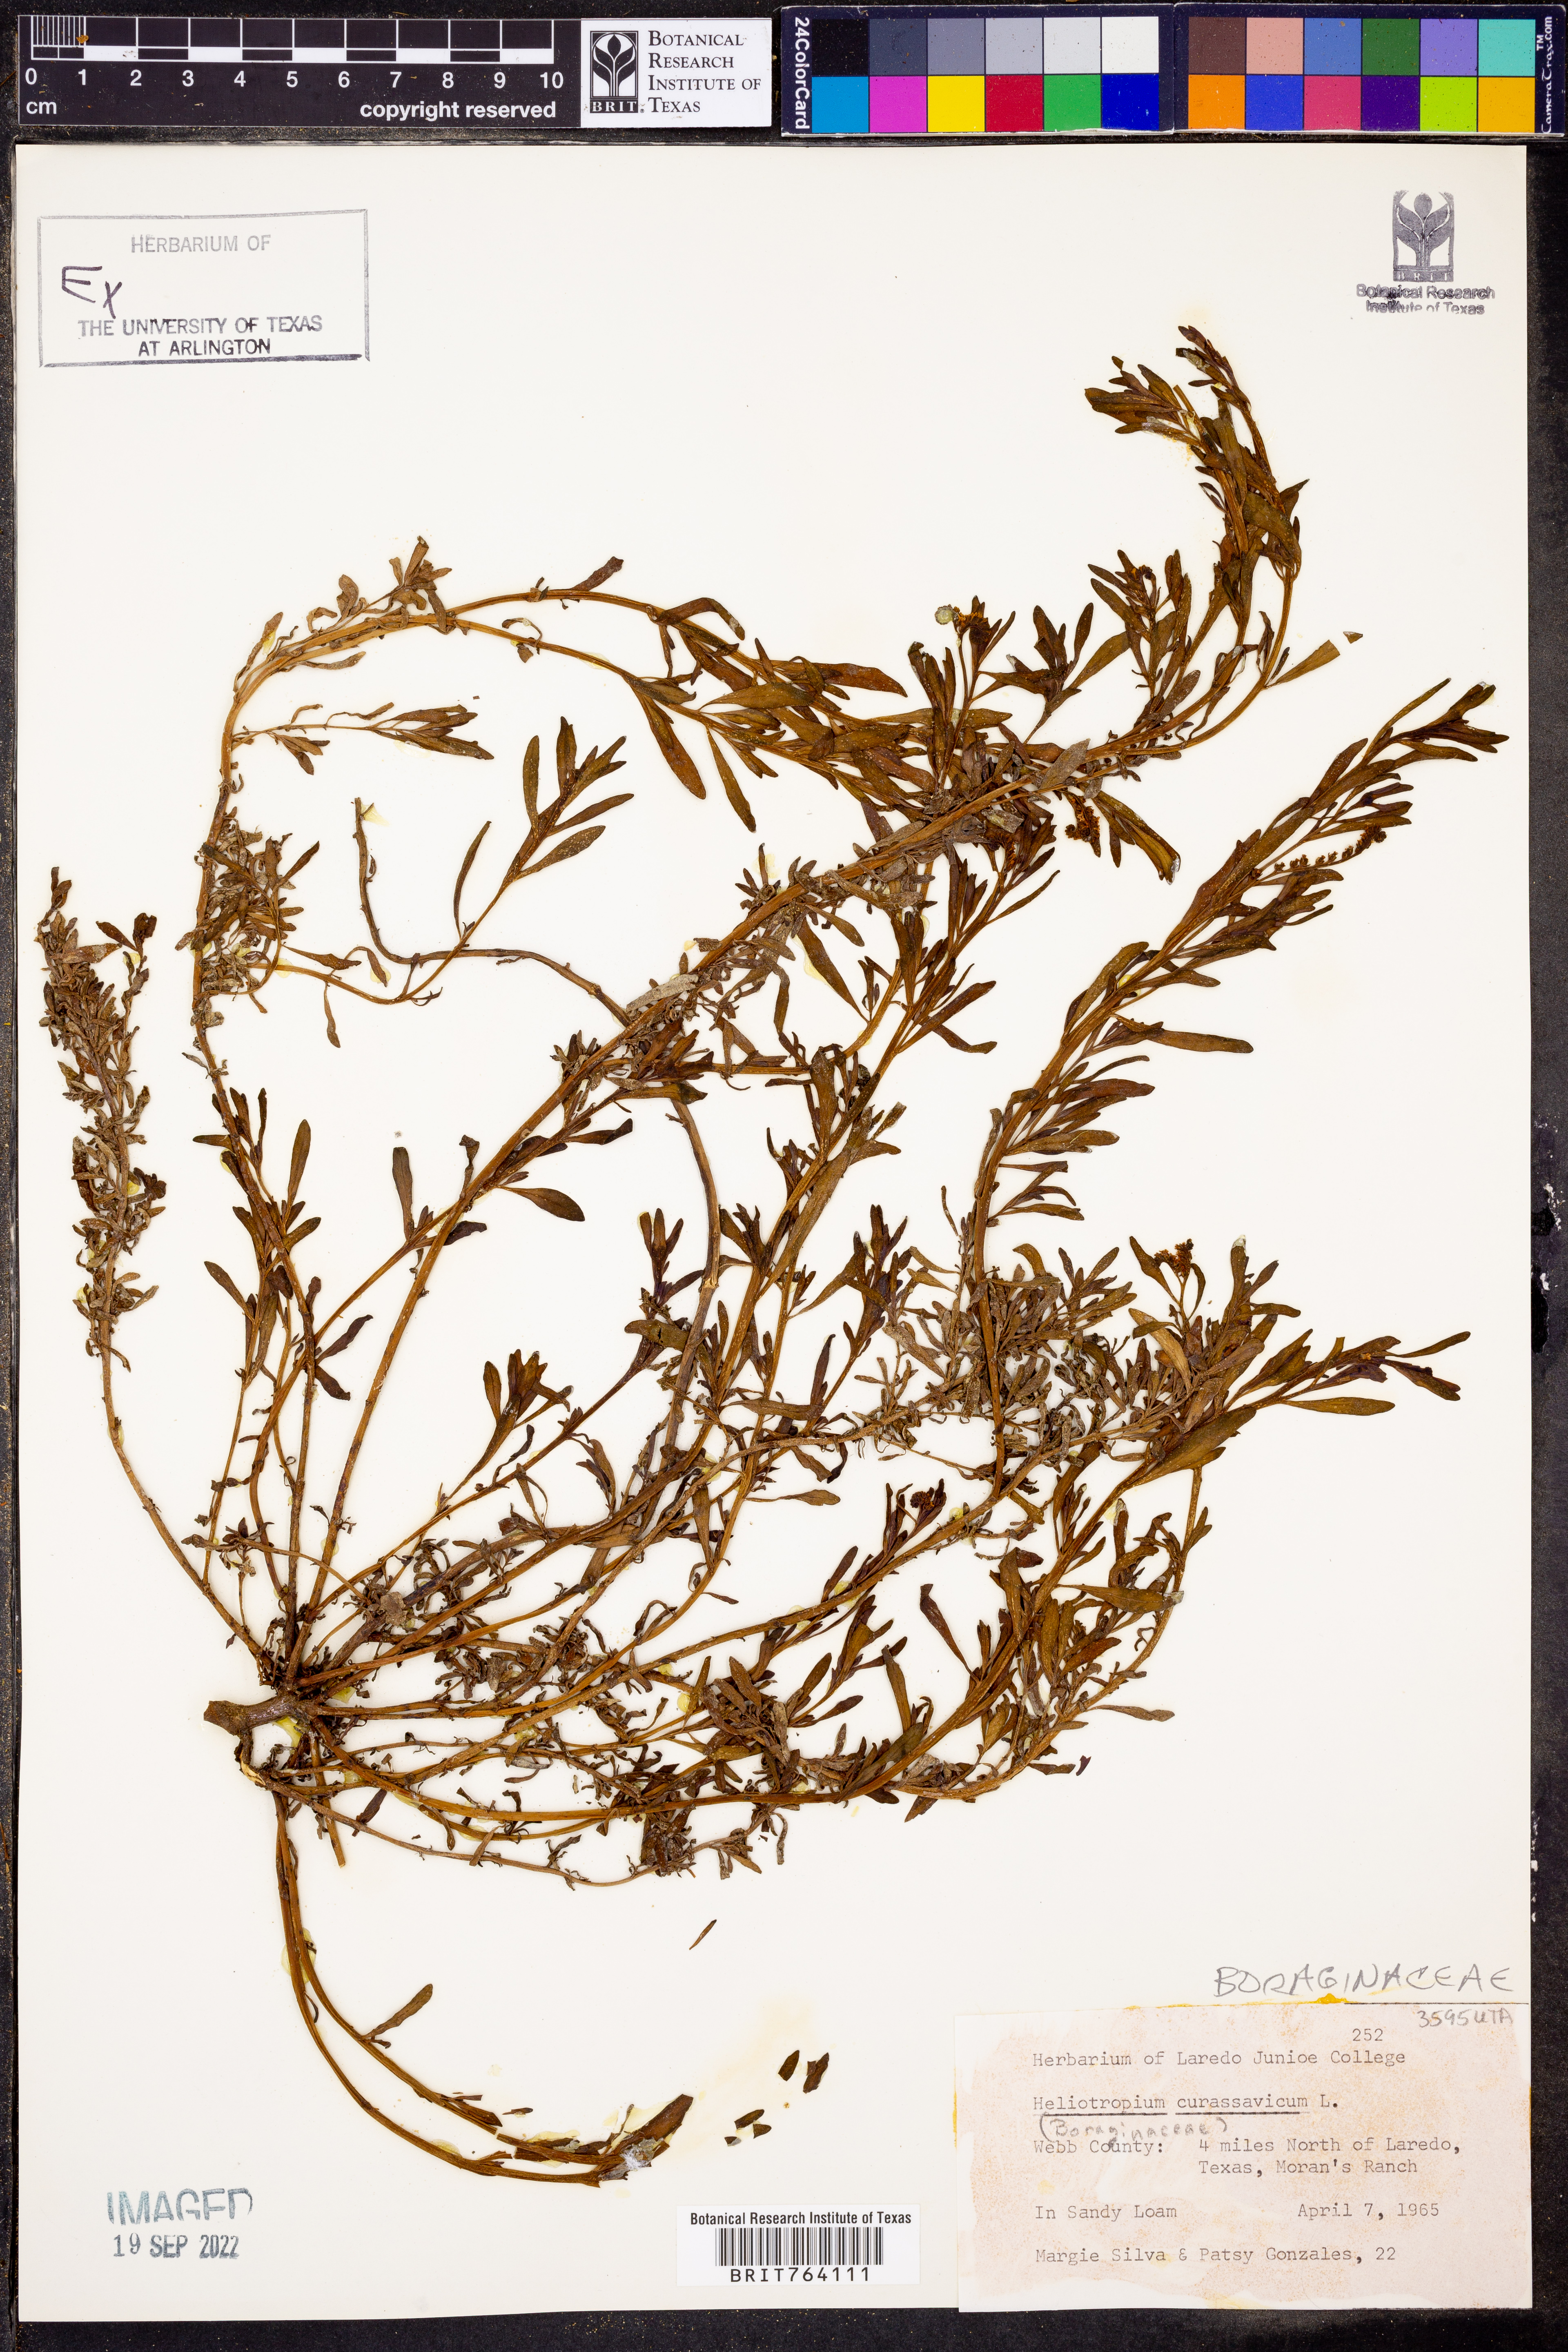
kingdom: Plantae
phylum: Tracheophyta
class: Magnoliopsida
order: Boraginales
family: Heliotropiaceae
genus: Heliotropium
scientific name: Heliotropium curassavicum
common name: Seaside heliotrope
